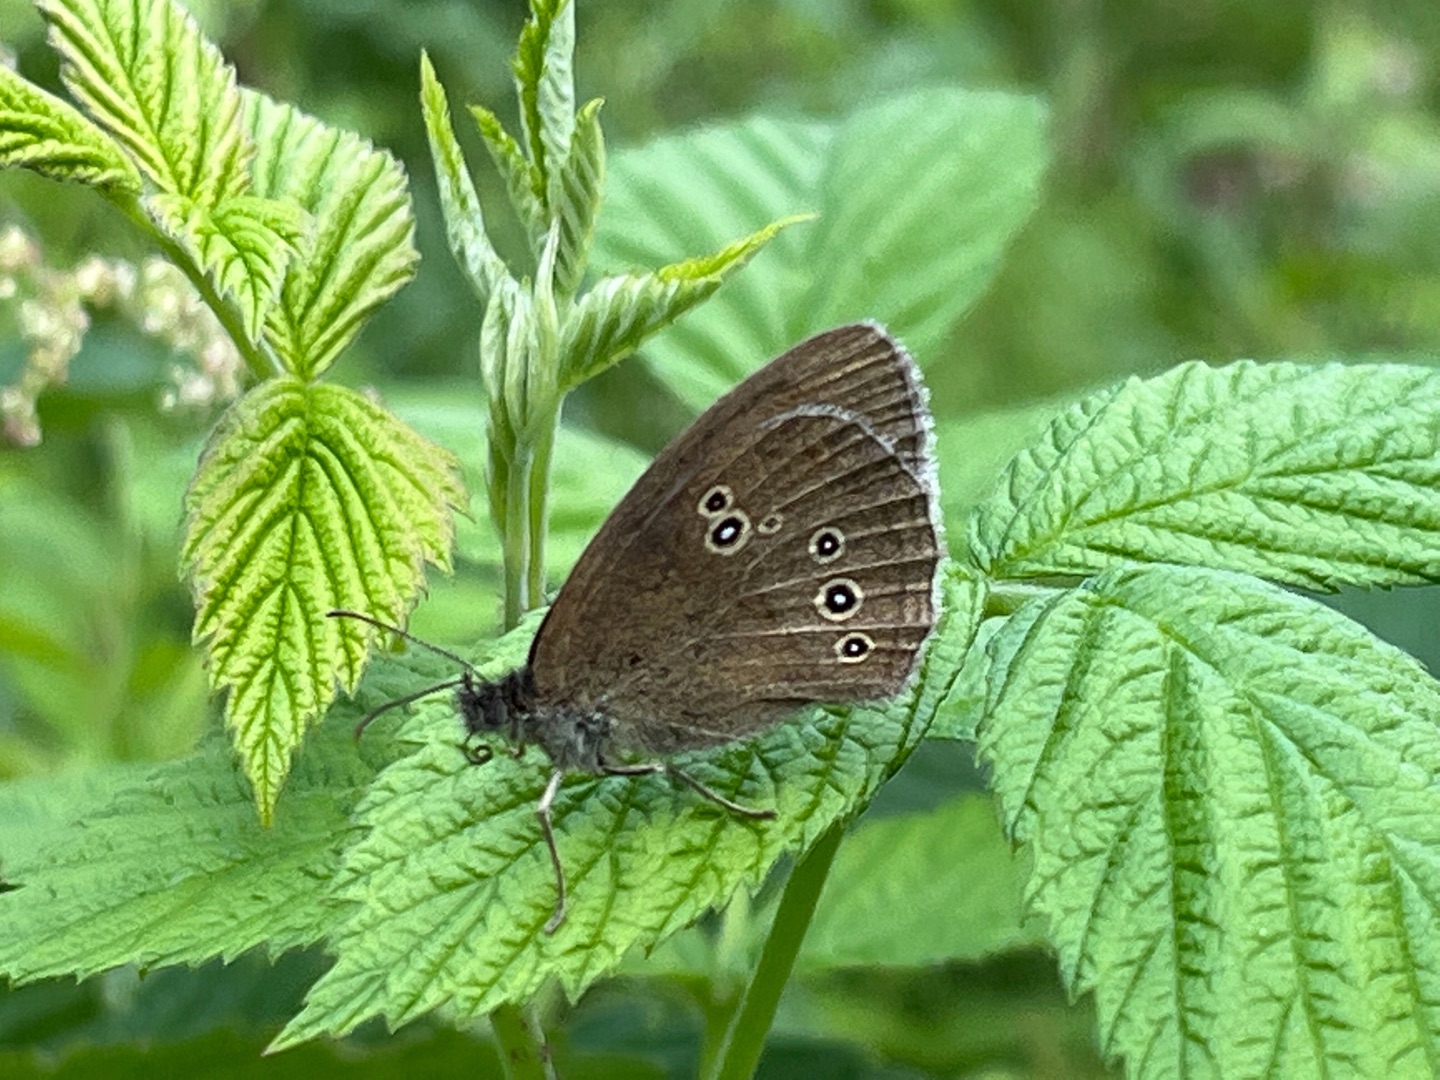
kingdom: Animalia
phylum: Arthropoda
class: Insecta
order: Lepidoptera
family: Nymphalidae
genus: Aphantopus
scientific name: Aphantopus hyperantus
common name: Engrandøje
